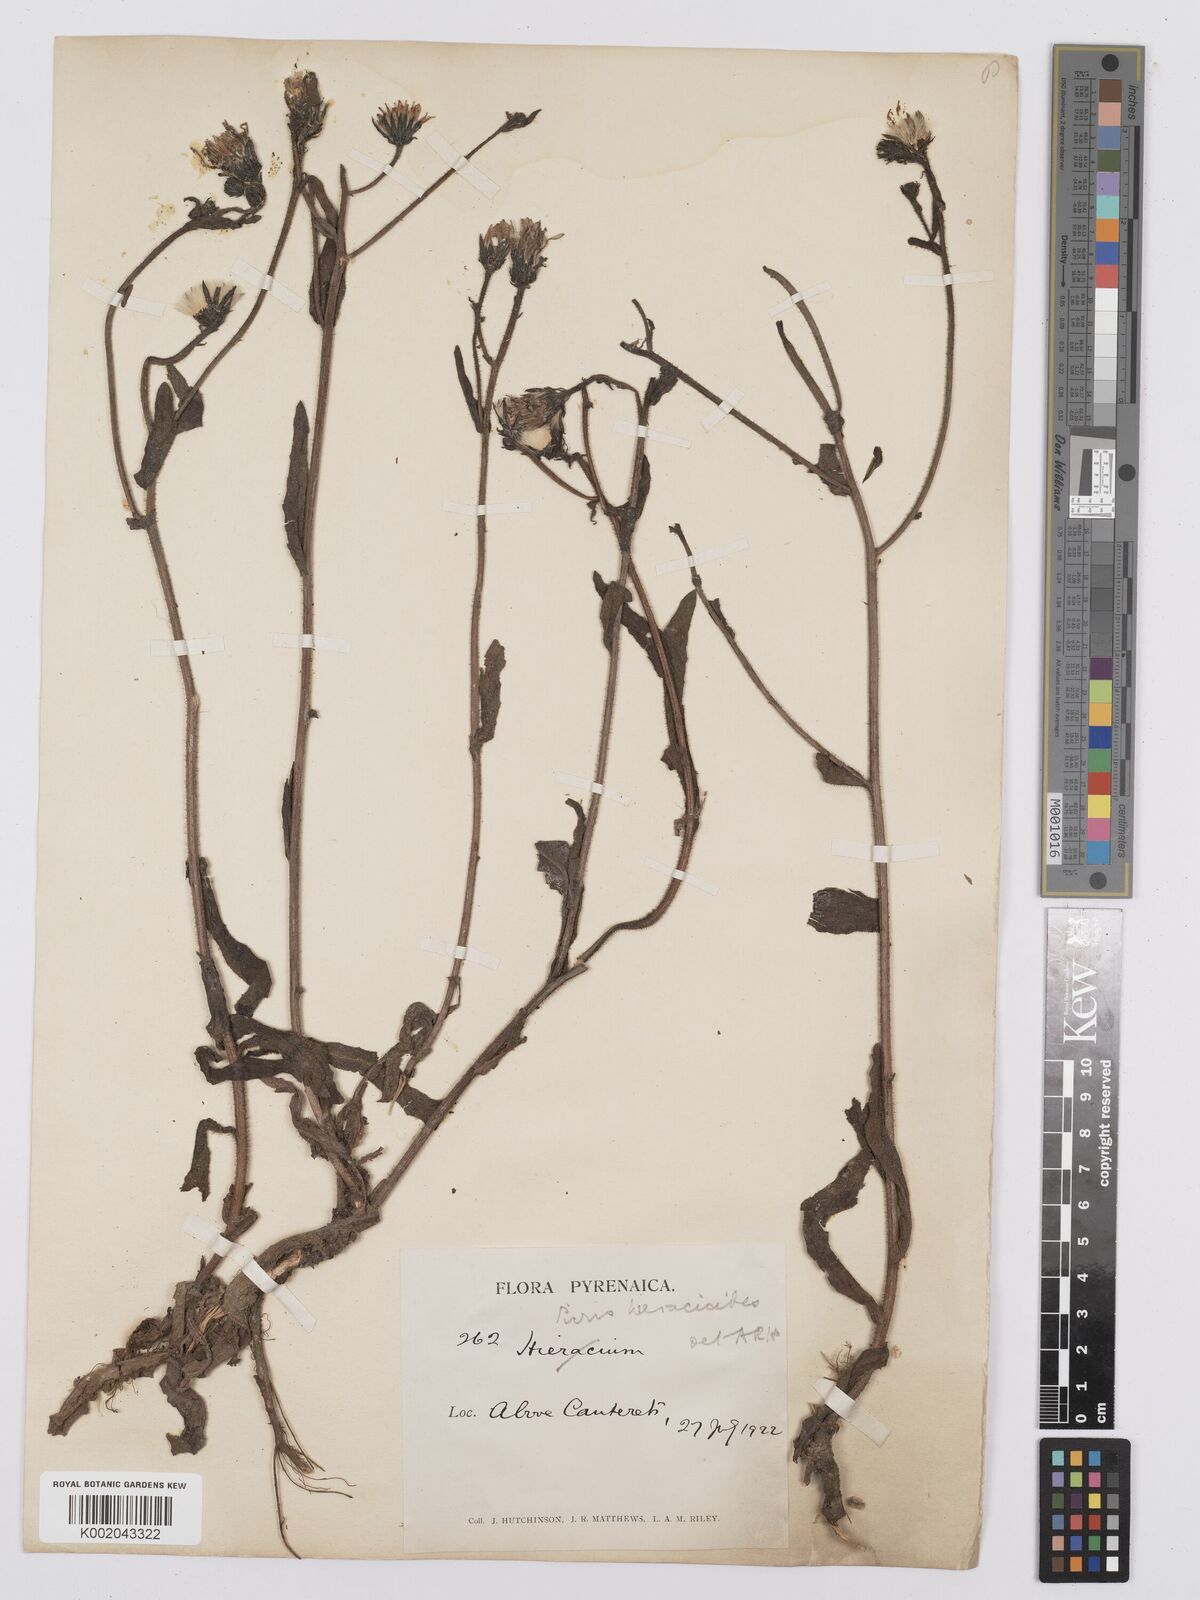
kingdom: Plantae
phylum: Tracheophyta
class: Magnoliopsida
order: Asterales
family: Asteraceae
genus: Picris
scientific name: Picris hieracioides
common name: Hawkweed oxtongue
